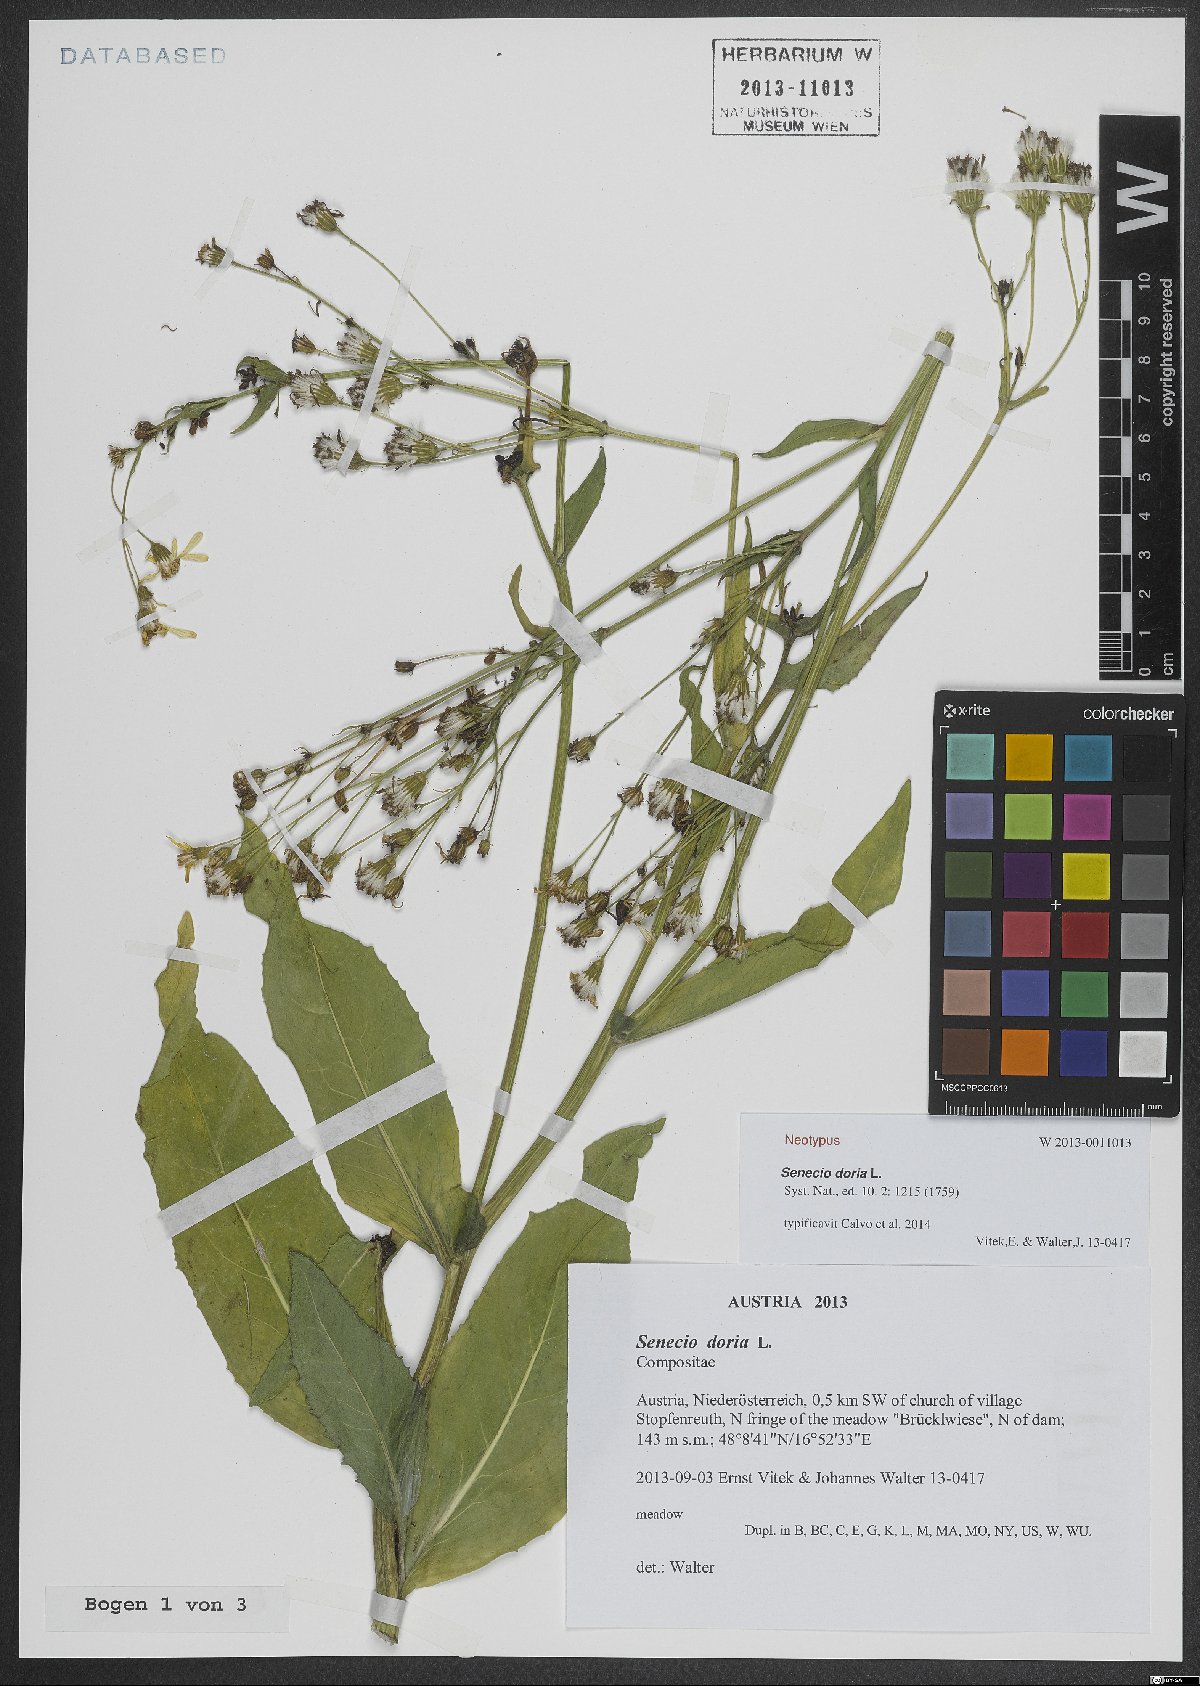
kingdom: Plantae
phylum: Tracheophyta
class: Magnoliopsida
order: Asterales
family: Asteraceae
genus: Senecio
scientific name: Senecio doria
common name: Golden ragwort
